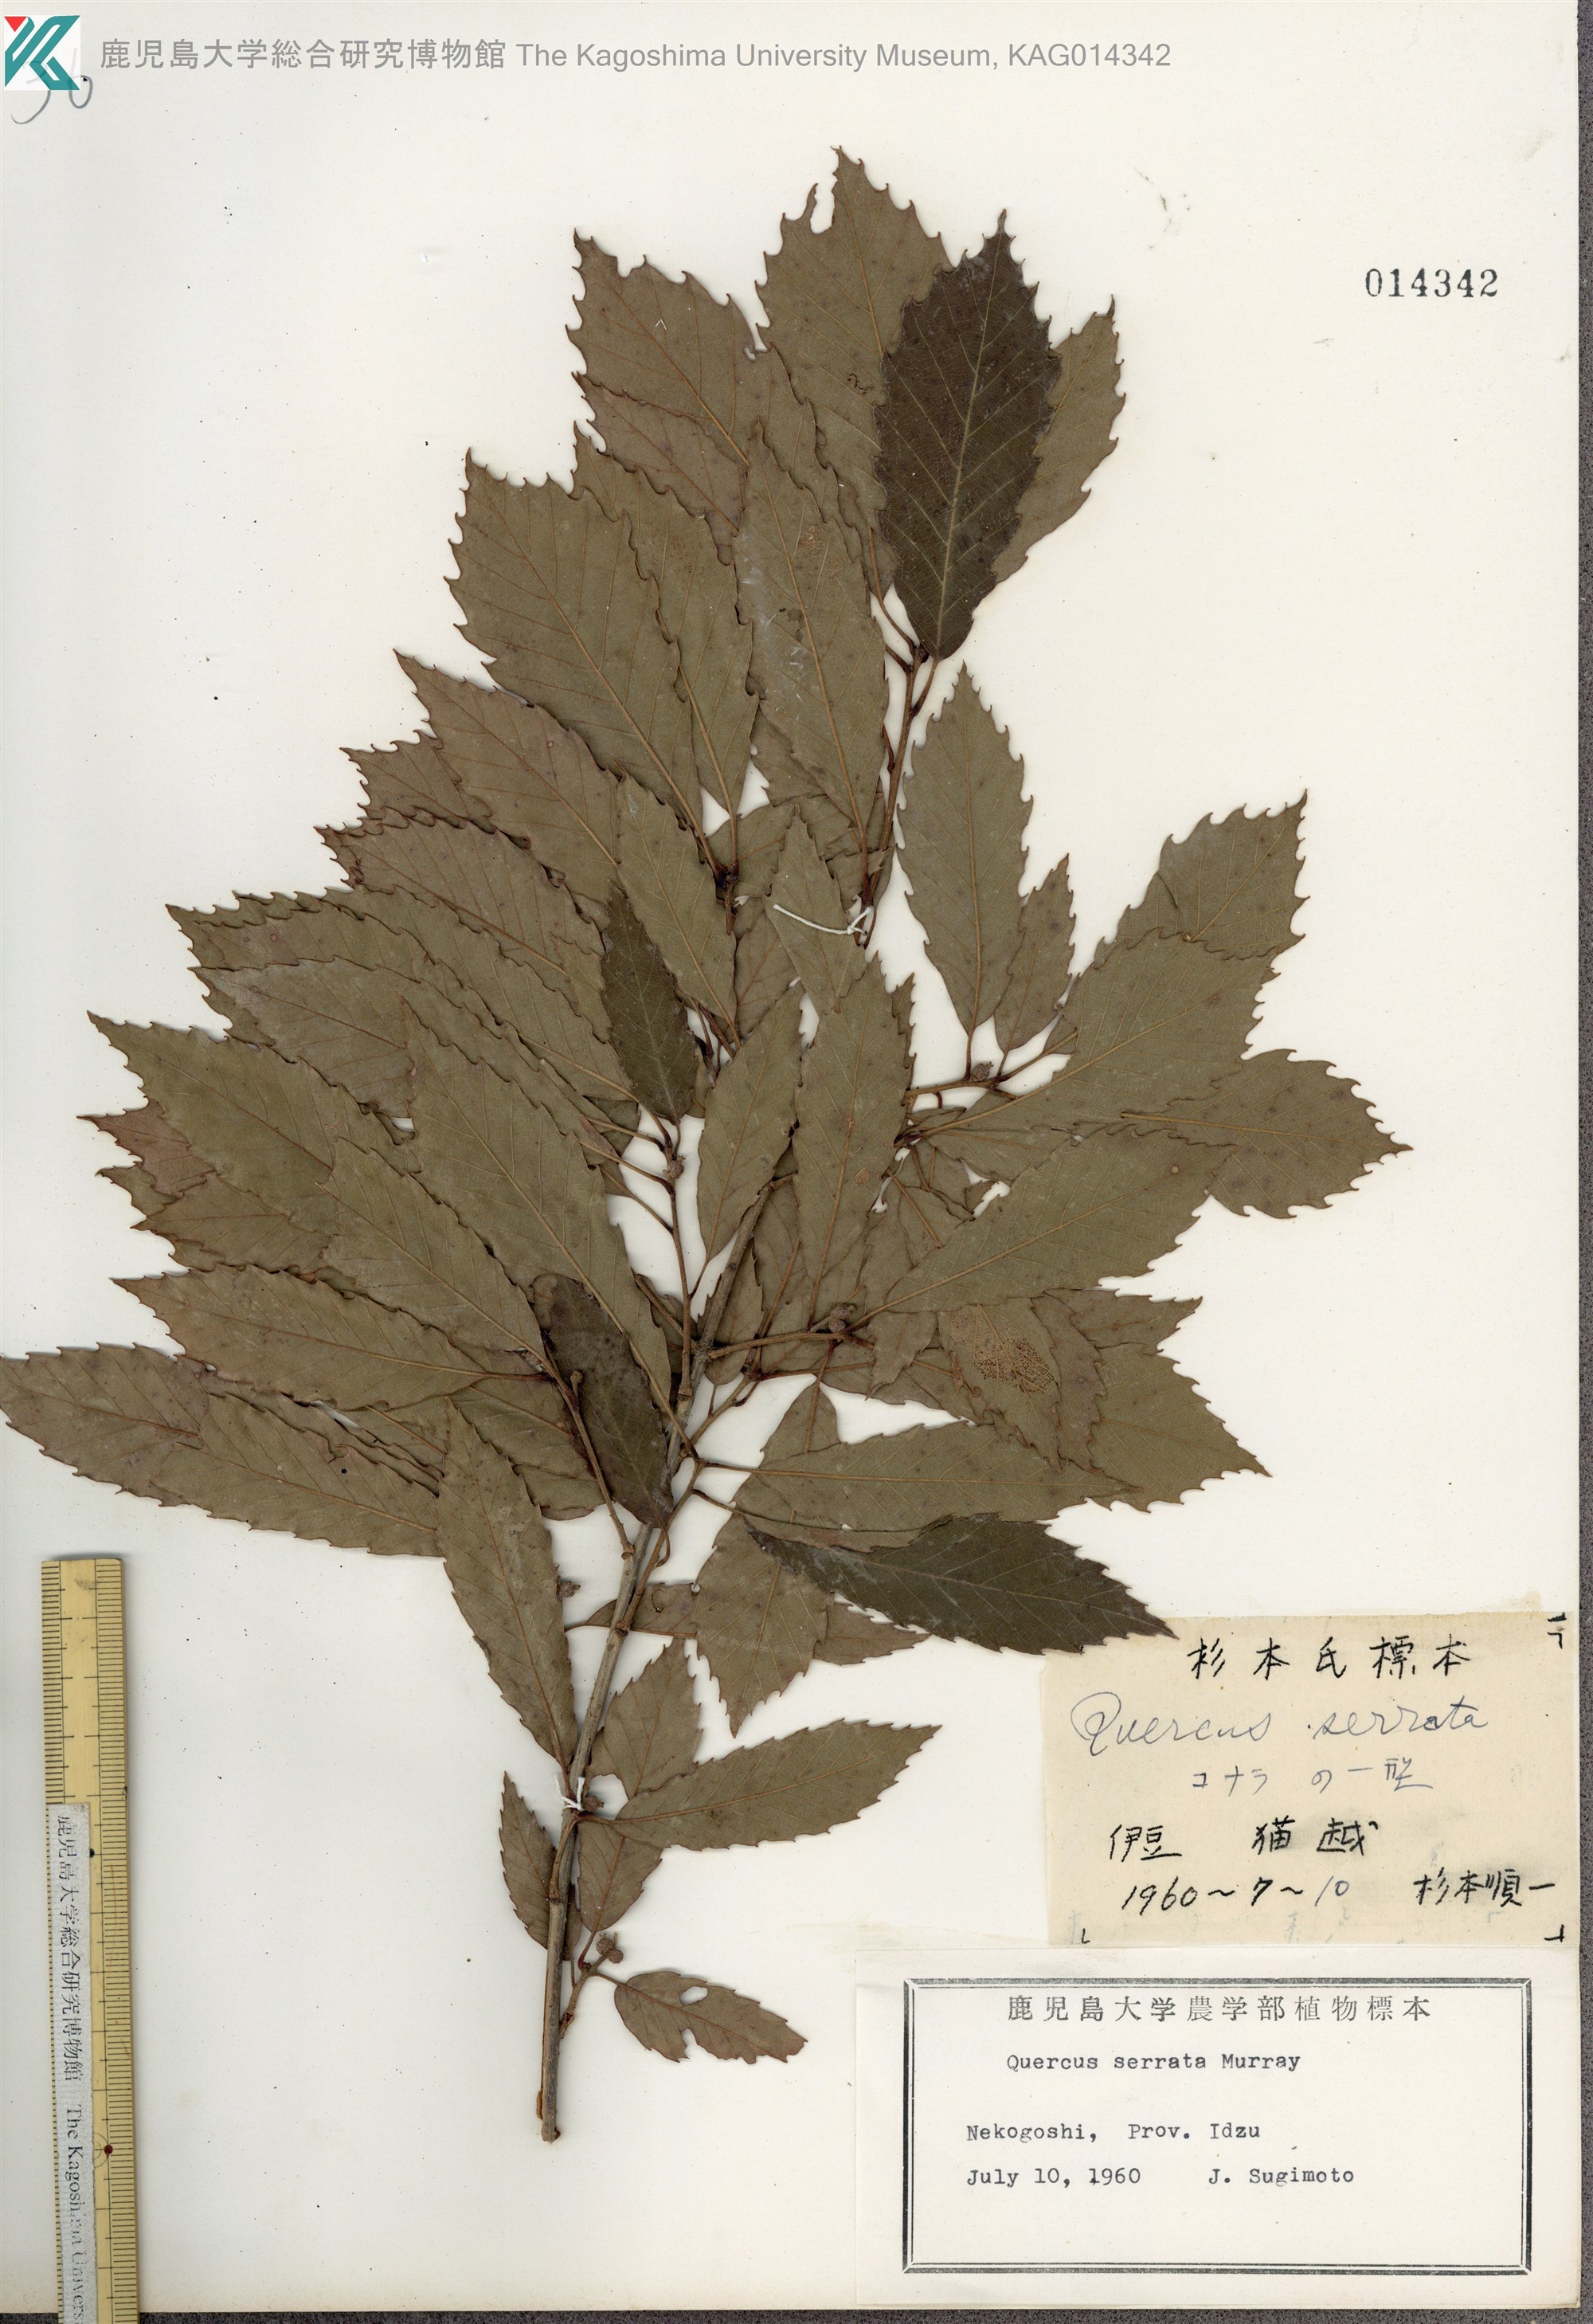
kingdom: Plantae
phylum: Tracheophyta
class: Magnoliopsida
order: Fagales
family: Fagaceae
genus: Quercus
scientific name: Quercus serrata
